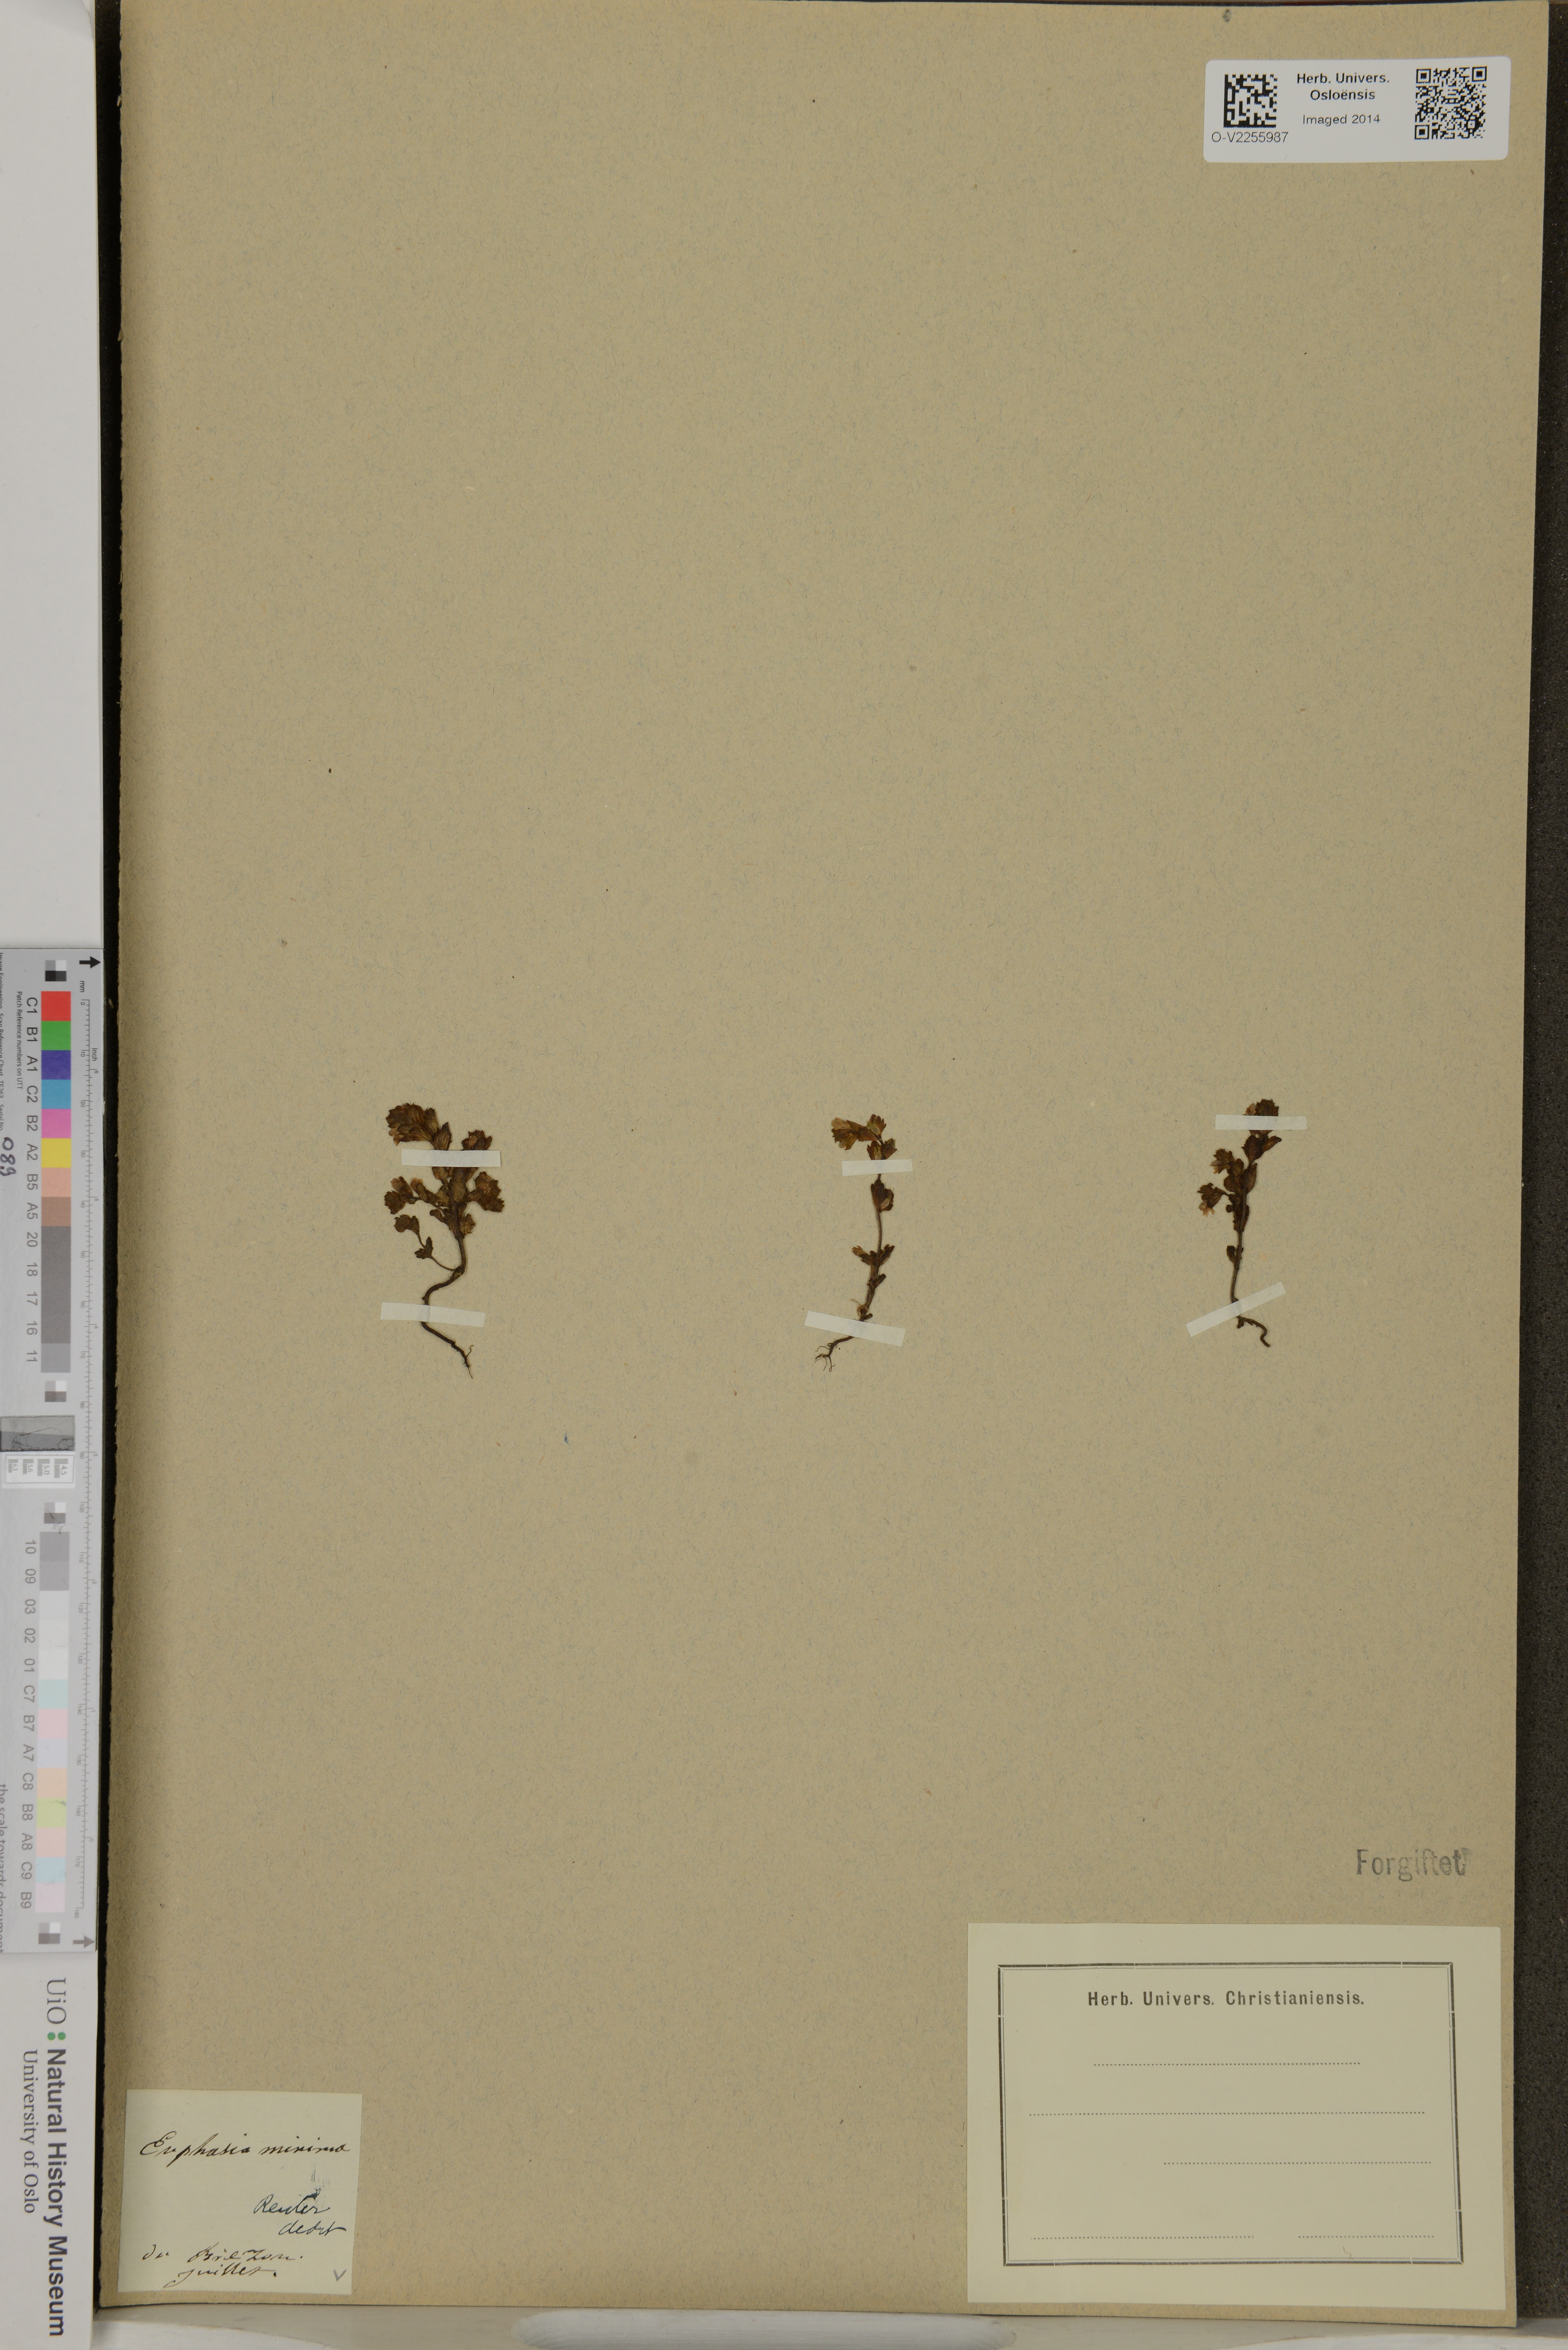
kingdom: Plantae
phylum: Tracheophyta
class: Magnoliopsida
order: Lamiales
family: Orobanchaceae
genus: Euphrasia
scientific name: Euphrasia minima
